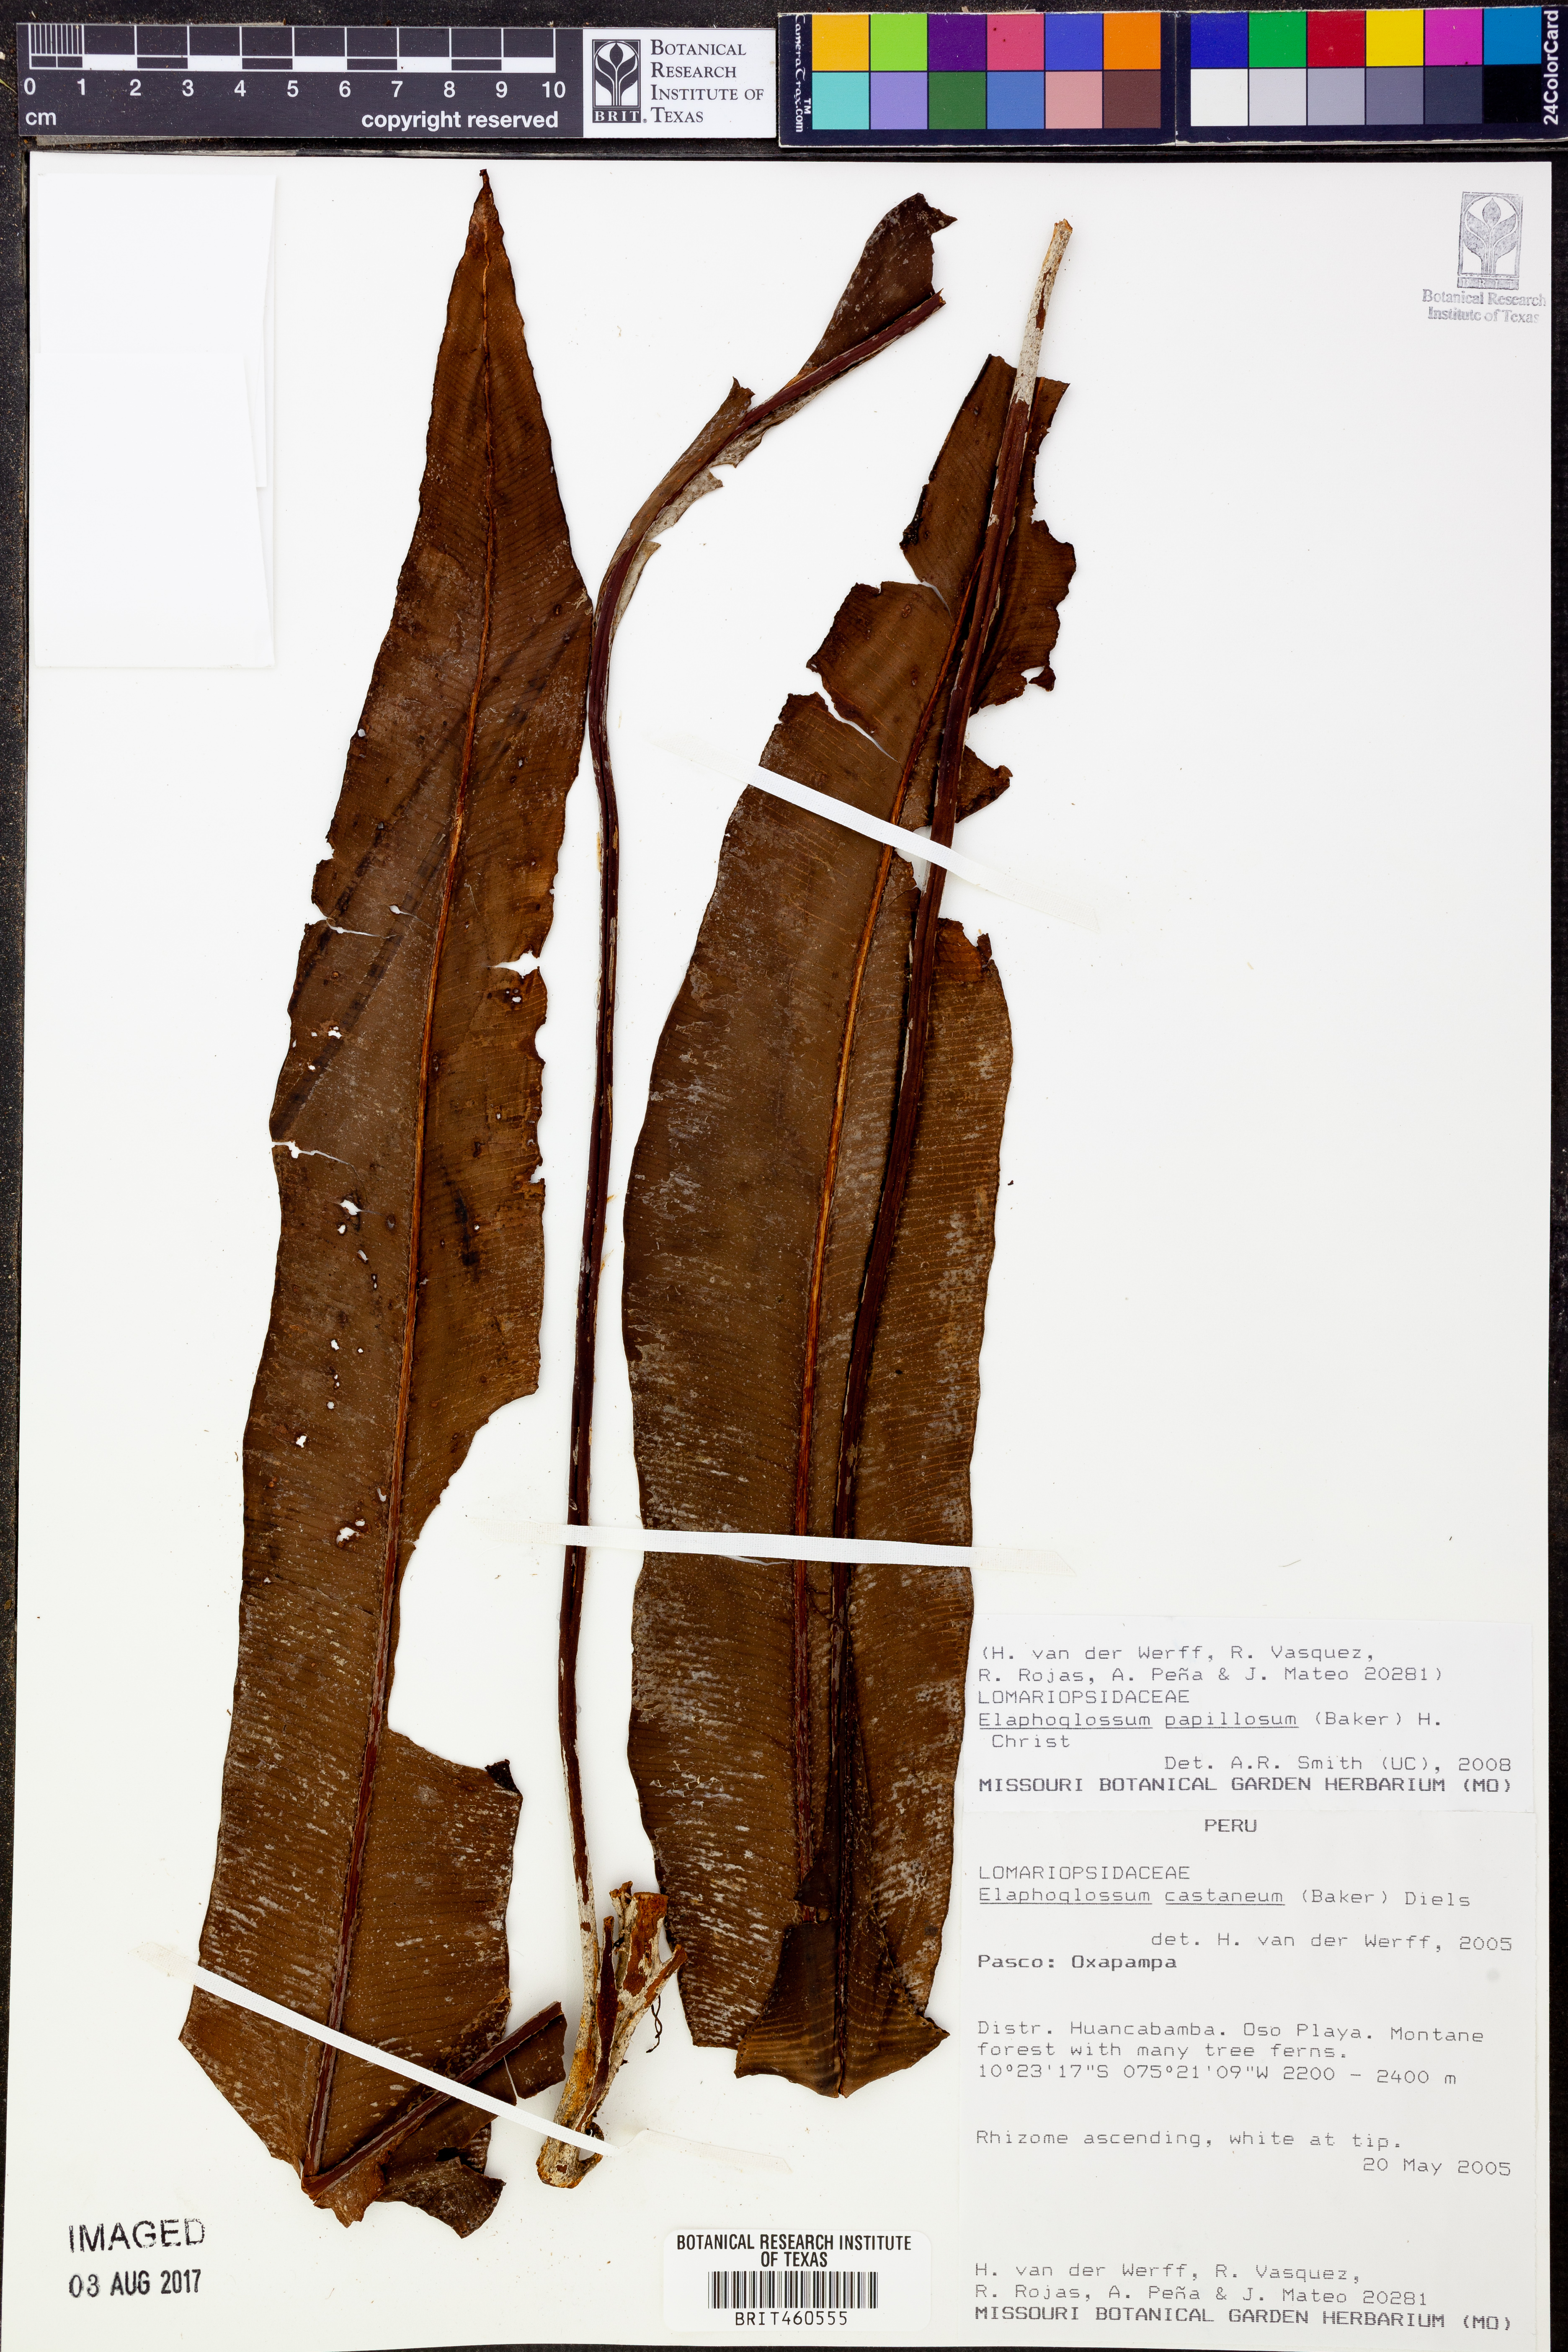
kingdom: Plantae
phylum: Tracheophyta
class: Polypodiopsida
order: Polypodiales
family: Dryopteridaceae
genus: Elaphoglossum
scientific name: Elaphoglossum papillosum
